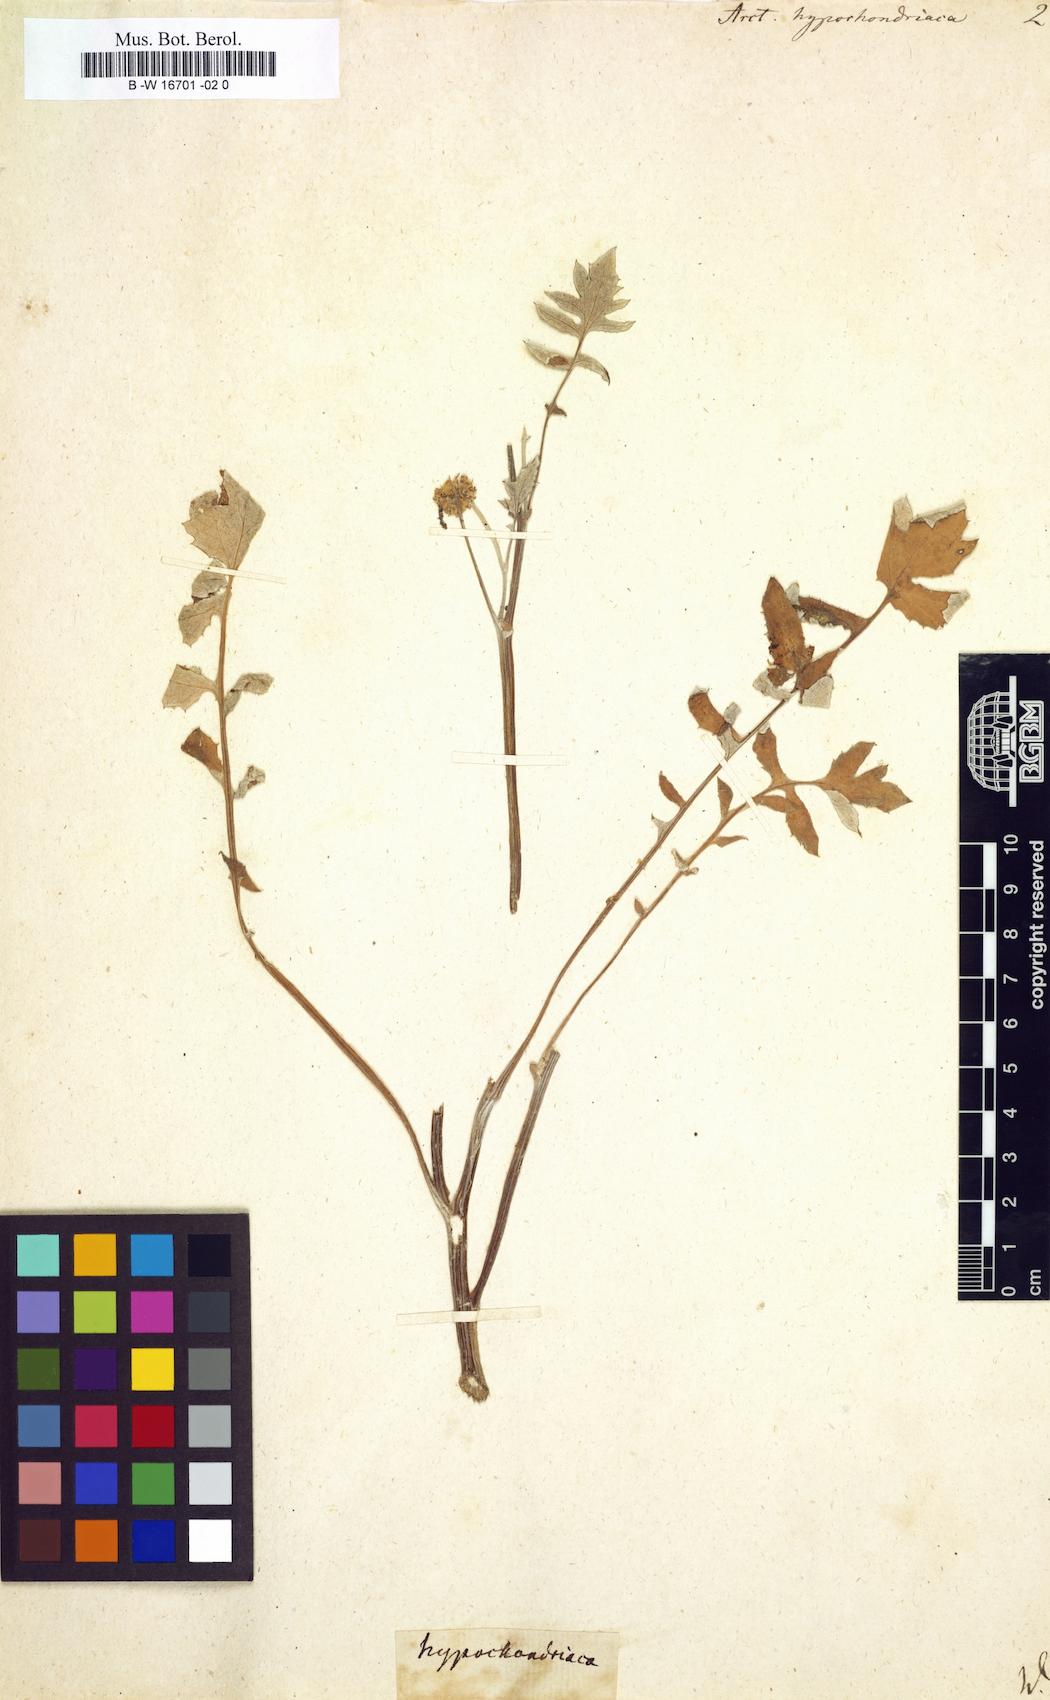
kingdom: Plantae
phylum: Tracheophyta
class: Magnoliopsida
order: Asterales
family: Asteraceae
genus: Arctotheca
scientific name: Arctotheca calendula
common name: Capeweed
